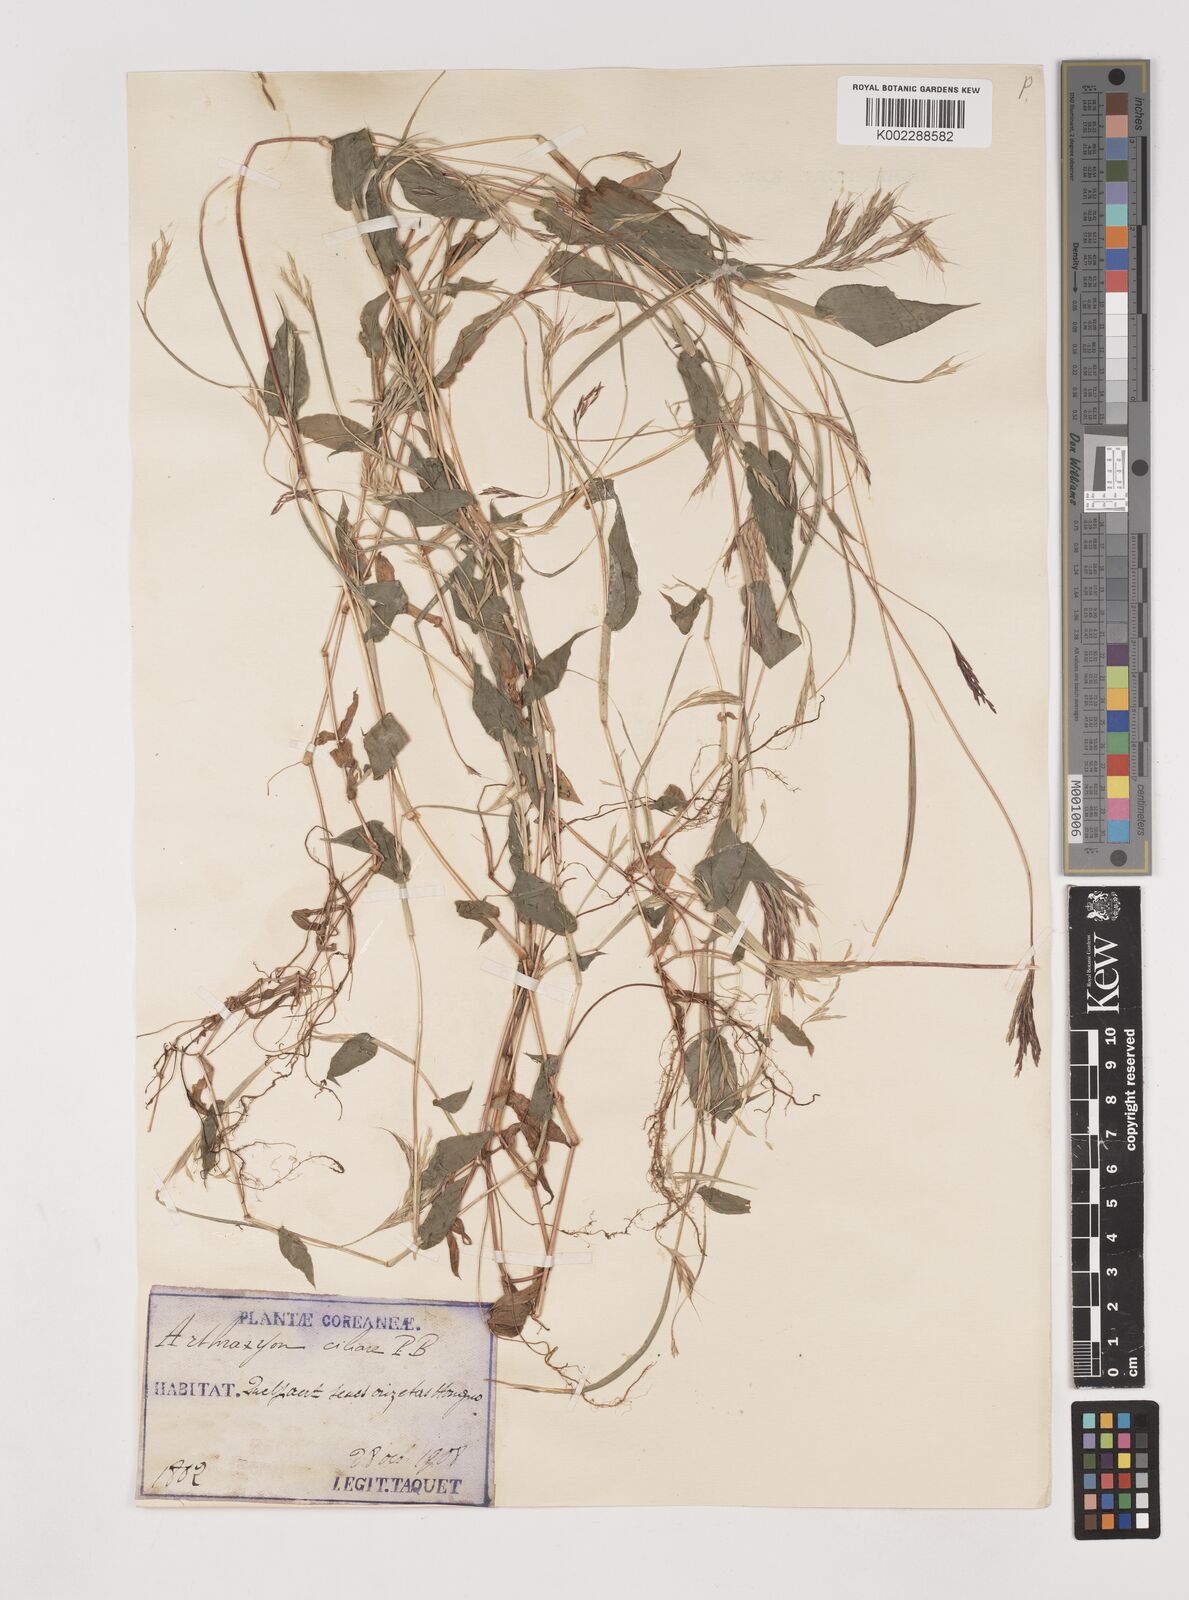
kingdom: Plantae
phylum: Tracheophyta
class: Liliopsida
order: Poales
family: Poaceae
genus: Arthraxon
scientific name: Arthraxon hispidus
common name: Small carpgrass
